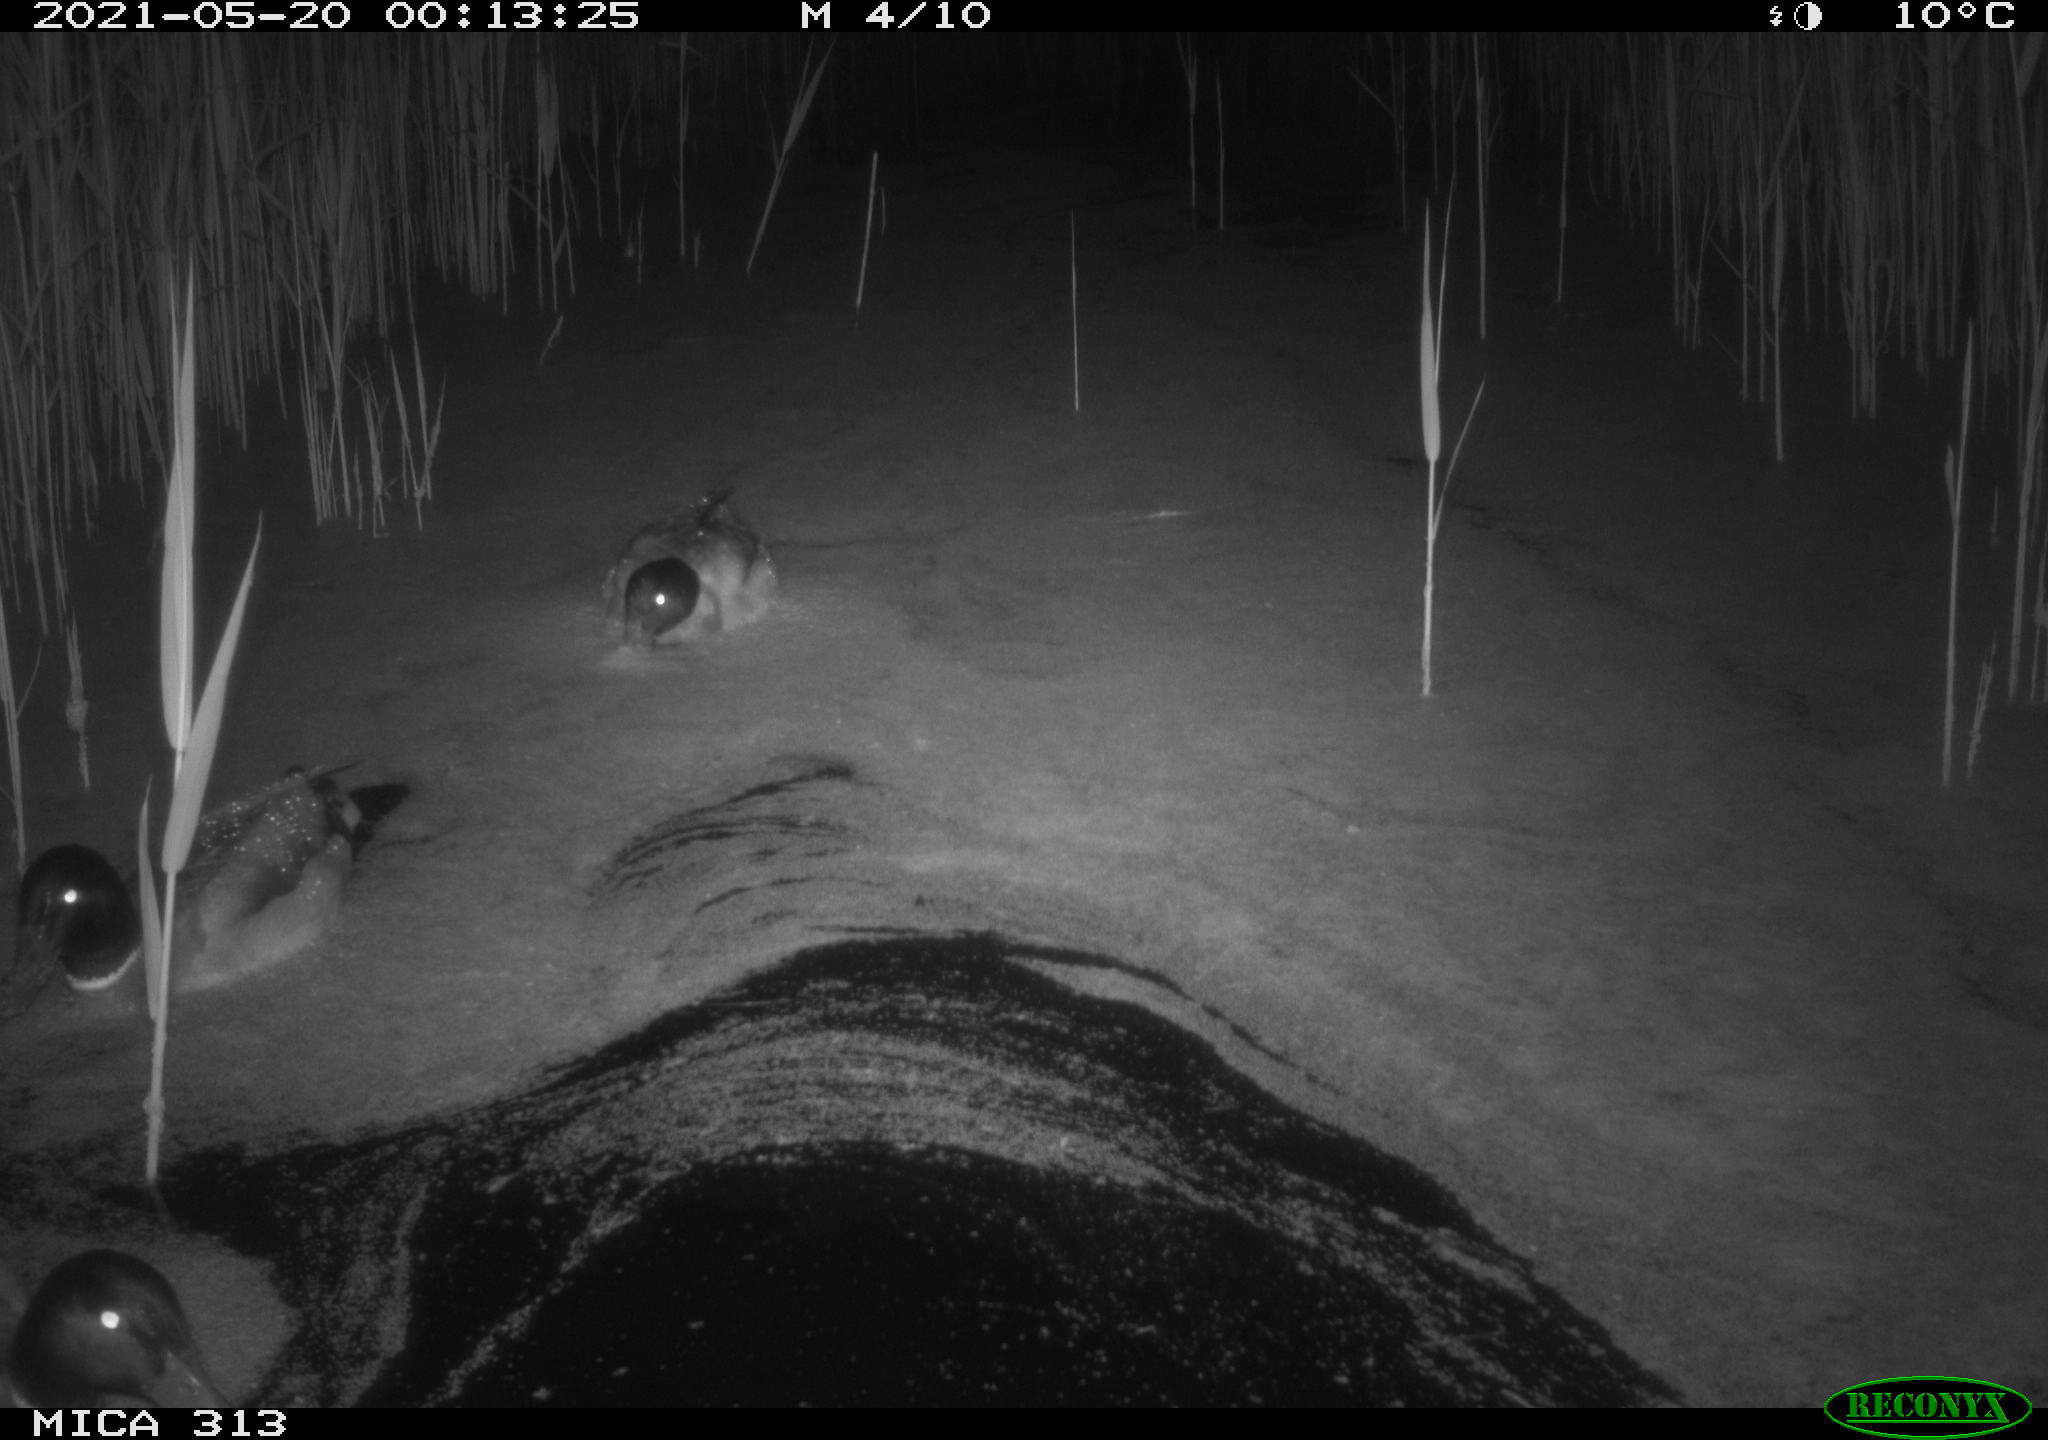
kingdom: Animalia
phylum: Chordata
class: Aves
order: Anseriformes
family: Anatidae
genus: Anas
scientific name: Anas platyrhynchos
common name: Mallard
